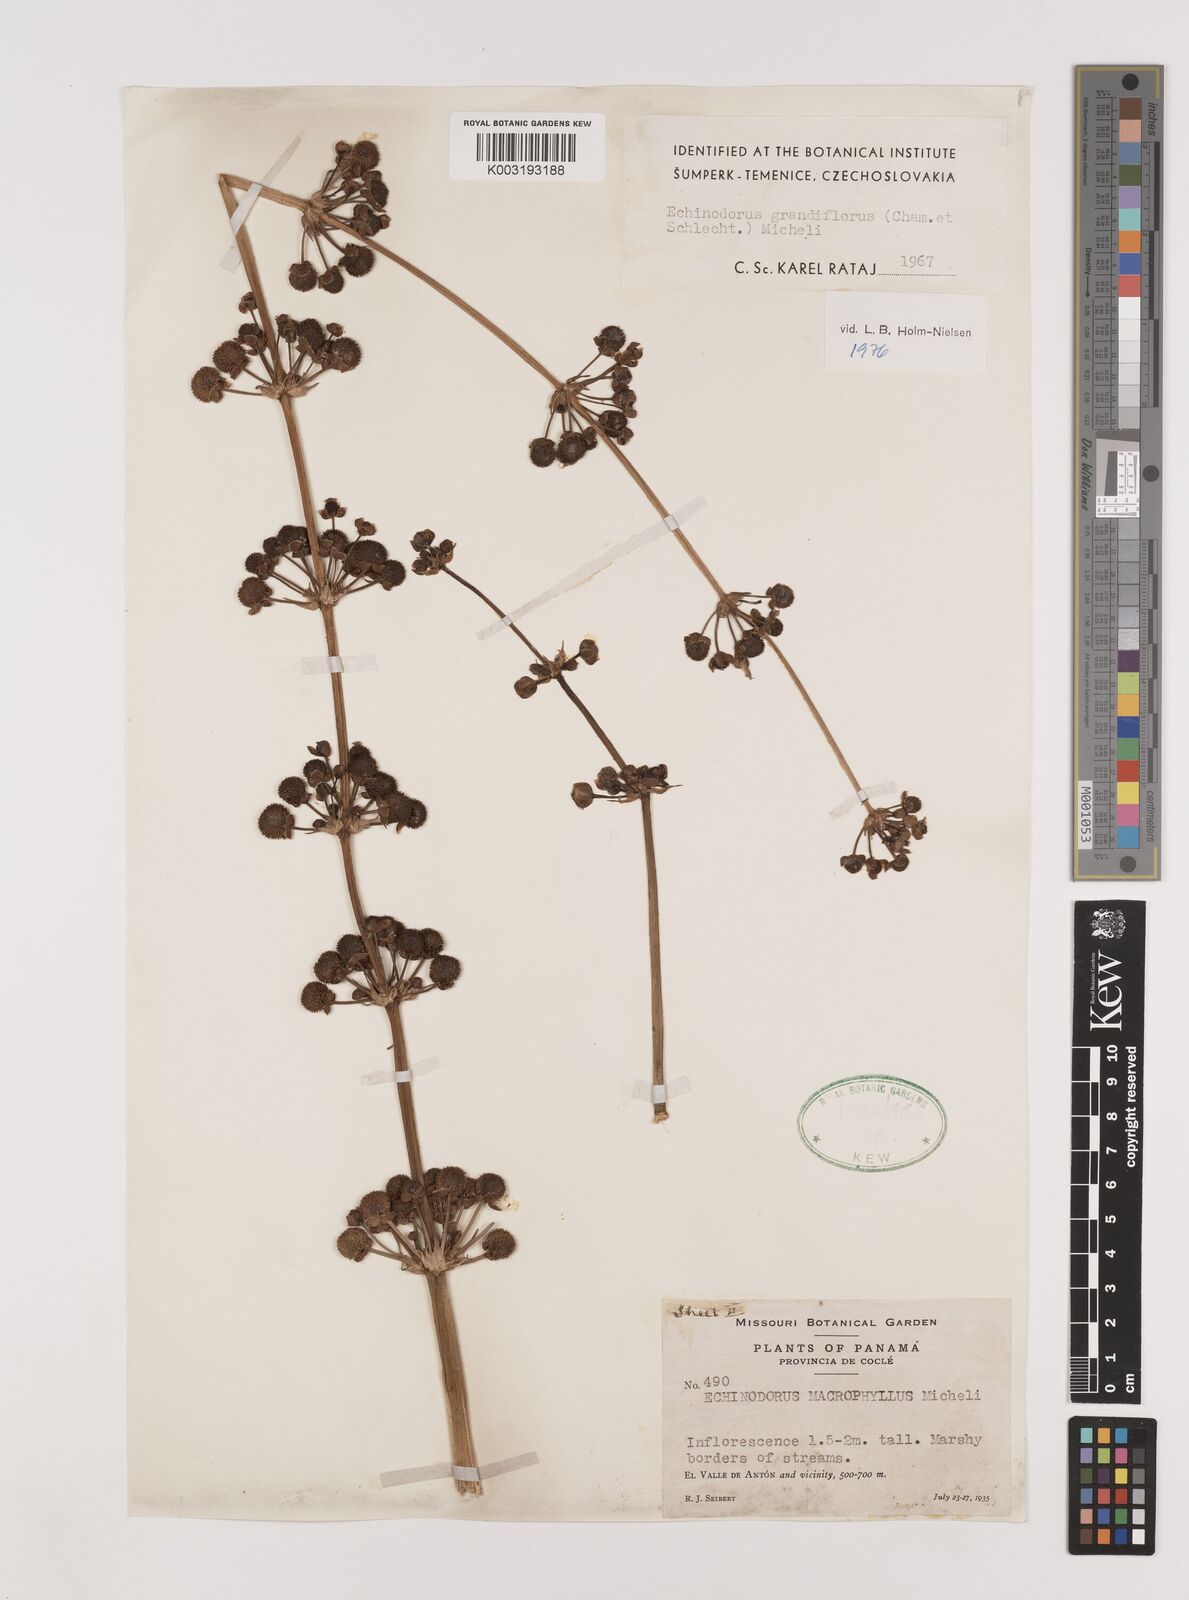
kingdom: Plantae
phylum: Tracheophyta
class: Liliopsida
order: Alismatales
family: Alismataceae
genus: Aquarius
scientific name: Aquarius grandiflorus
